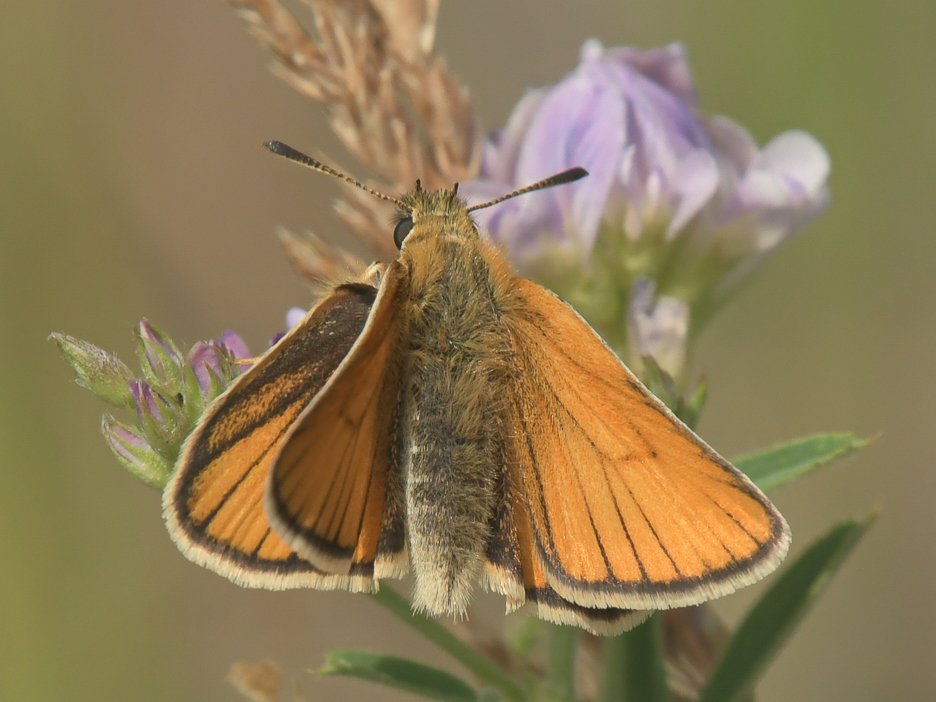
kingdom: Animalia
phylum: Arthropoda
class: Insecta
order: Lepidoptera
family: Hesperiidae
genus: Thymelicus
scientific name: Thymelicus lineola
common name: European Skipper
